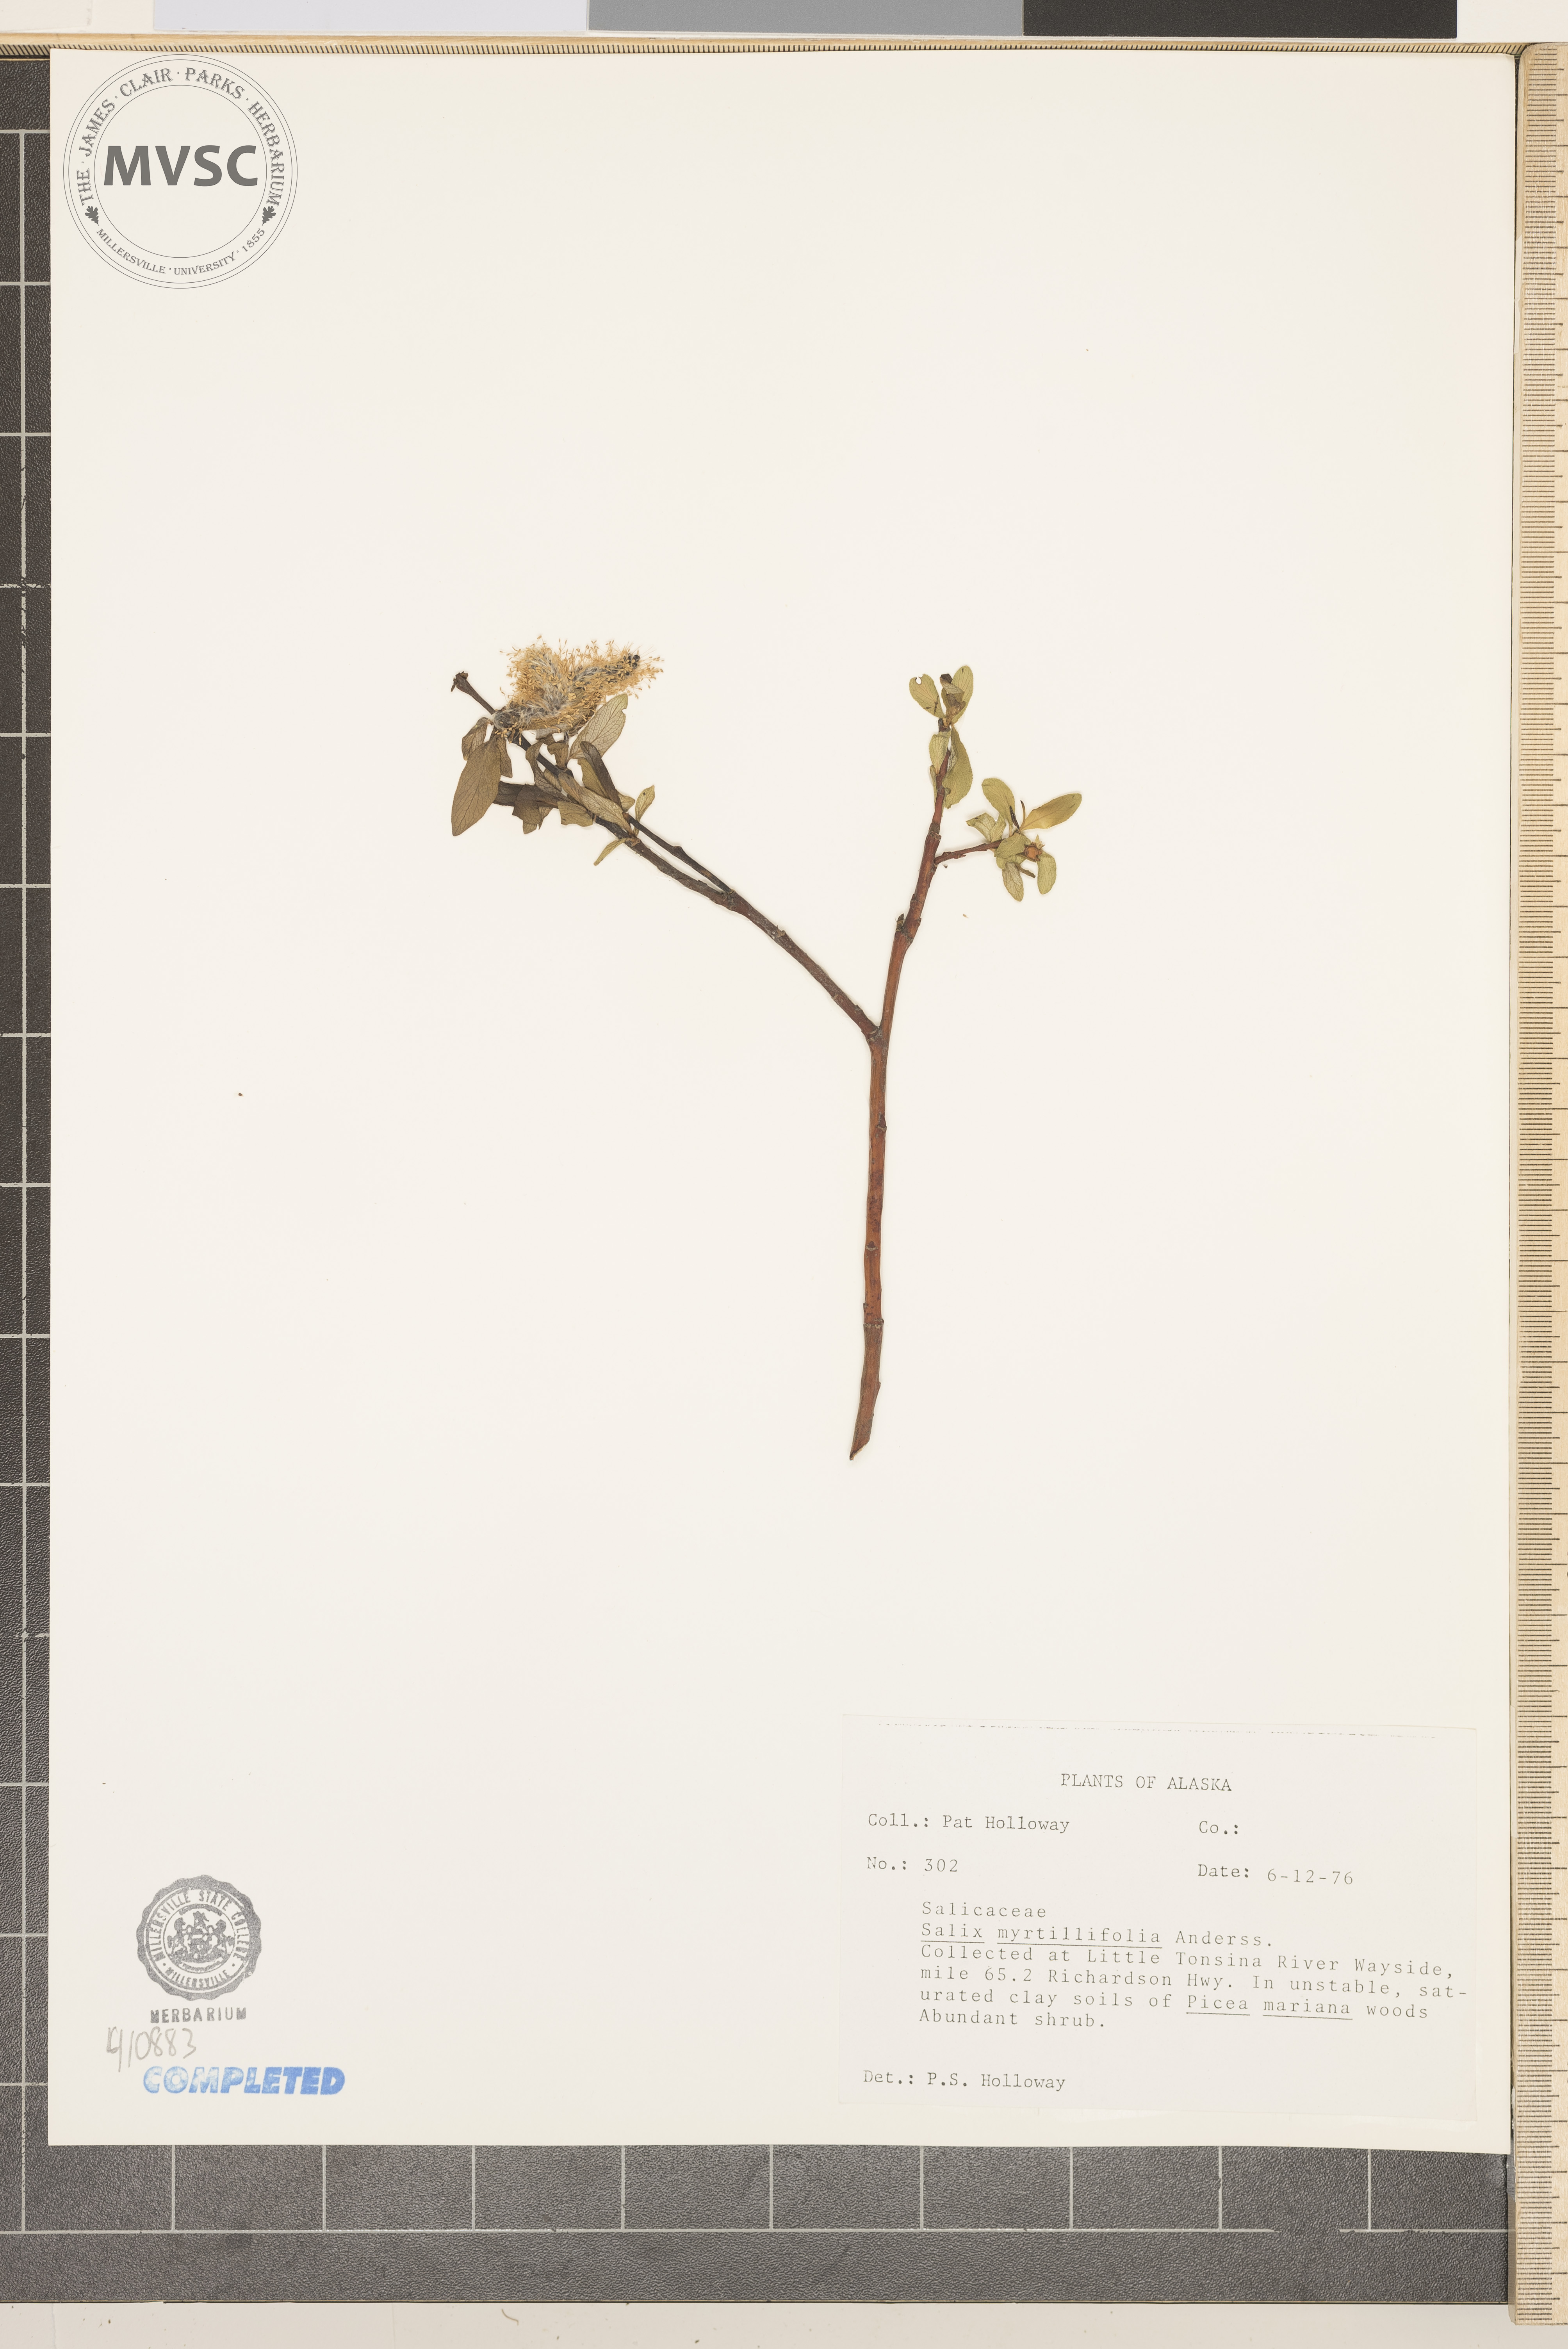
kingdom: Plantae
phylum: Tracheophyta
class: Magnoliopsida
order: Malpighiales
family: Salicaceae
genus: Salix
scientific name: Salix myrtillifolia
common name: Bilberry willow
